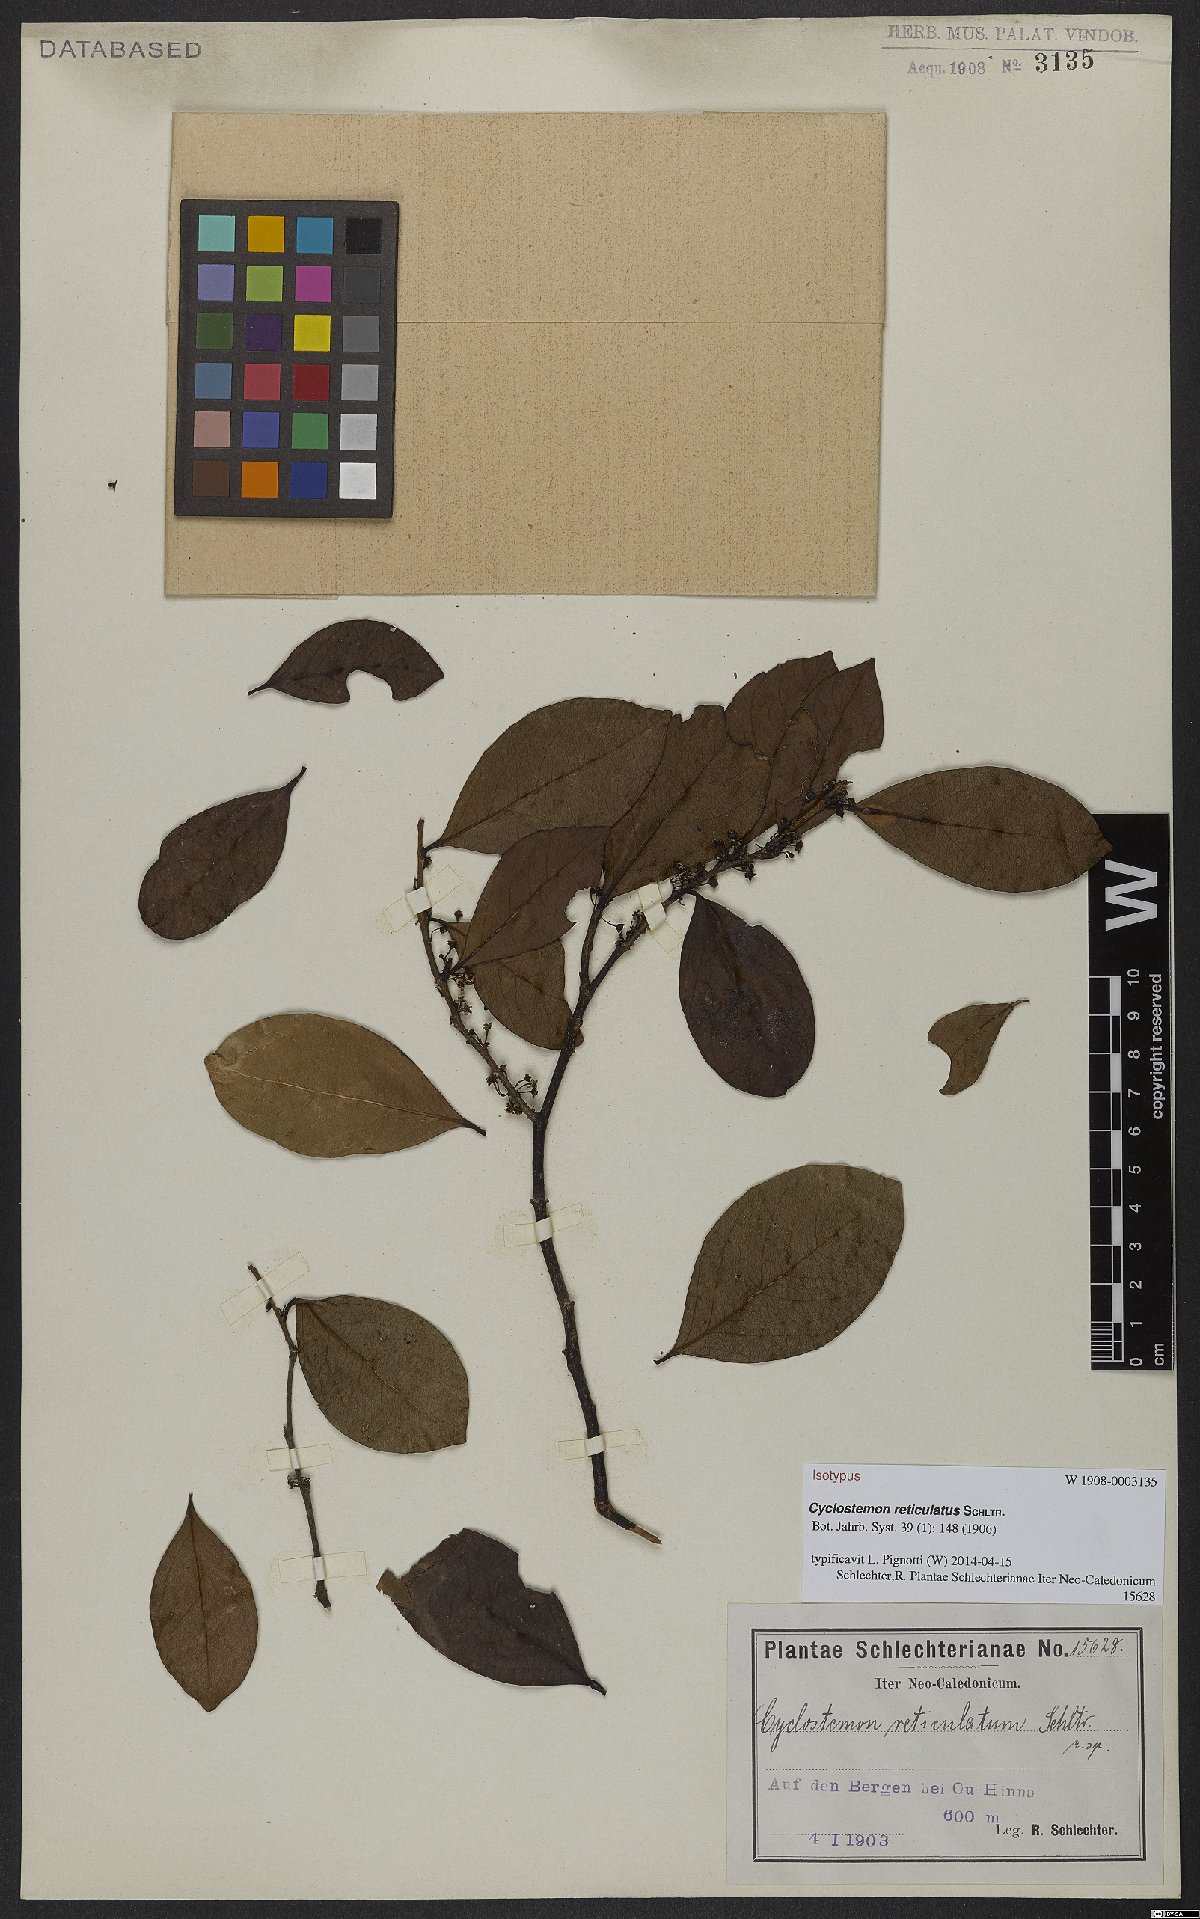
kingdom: Plantae
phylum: Tracheophyta
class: Magnoliopsida
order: Malpighiales
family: Salicaceae
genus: Lasiochlamys
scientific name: Lasiochlamys reticulata
